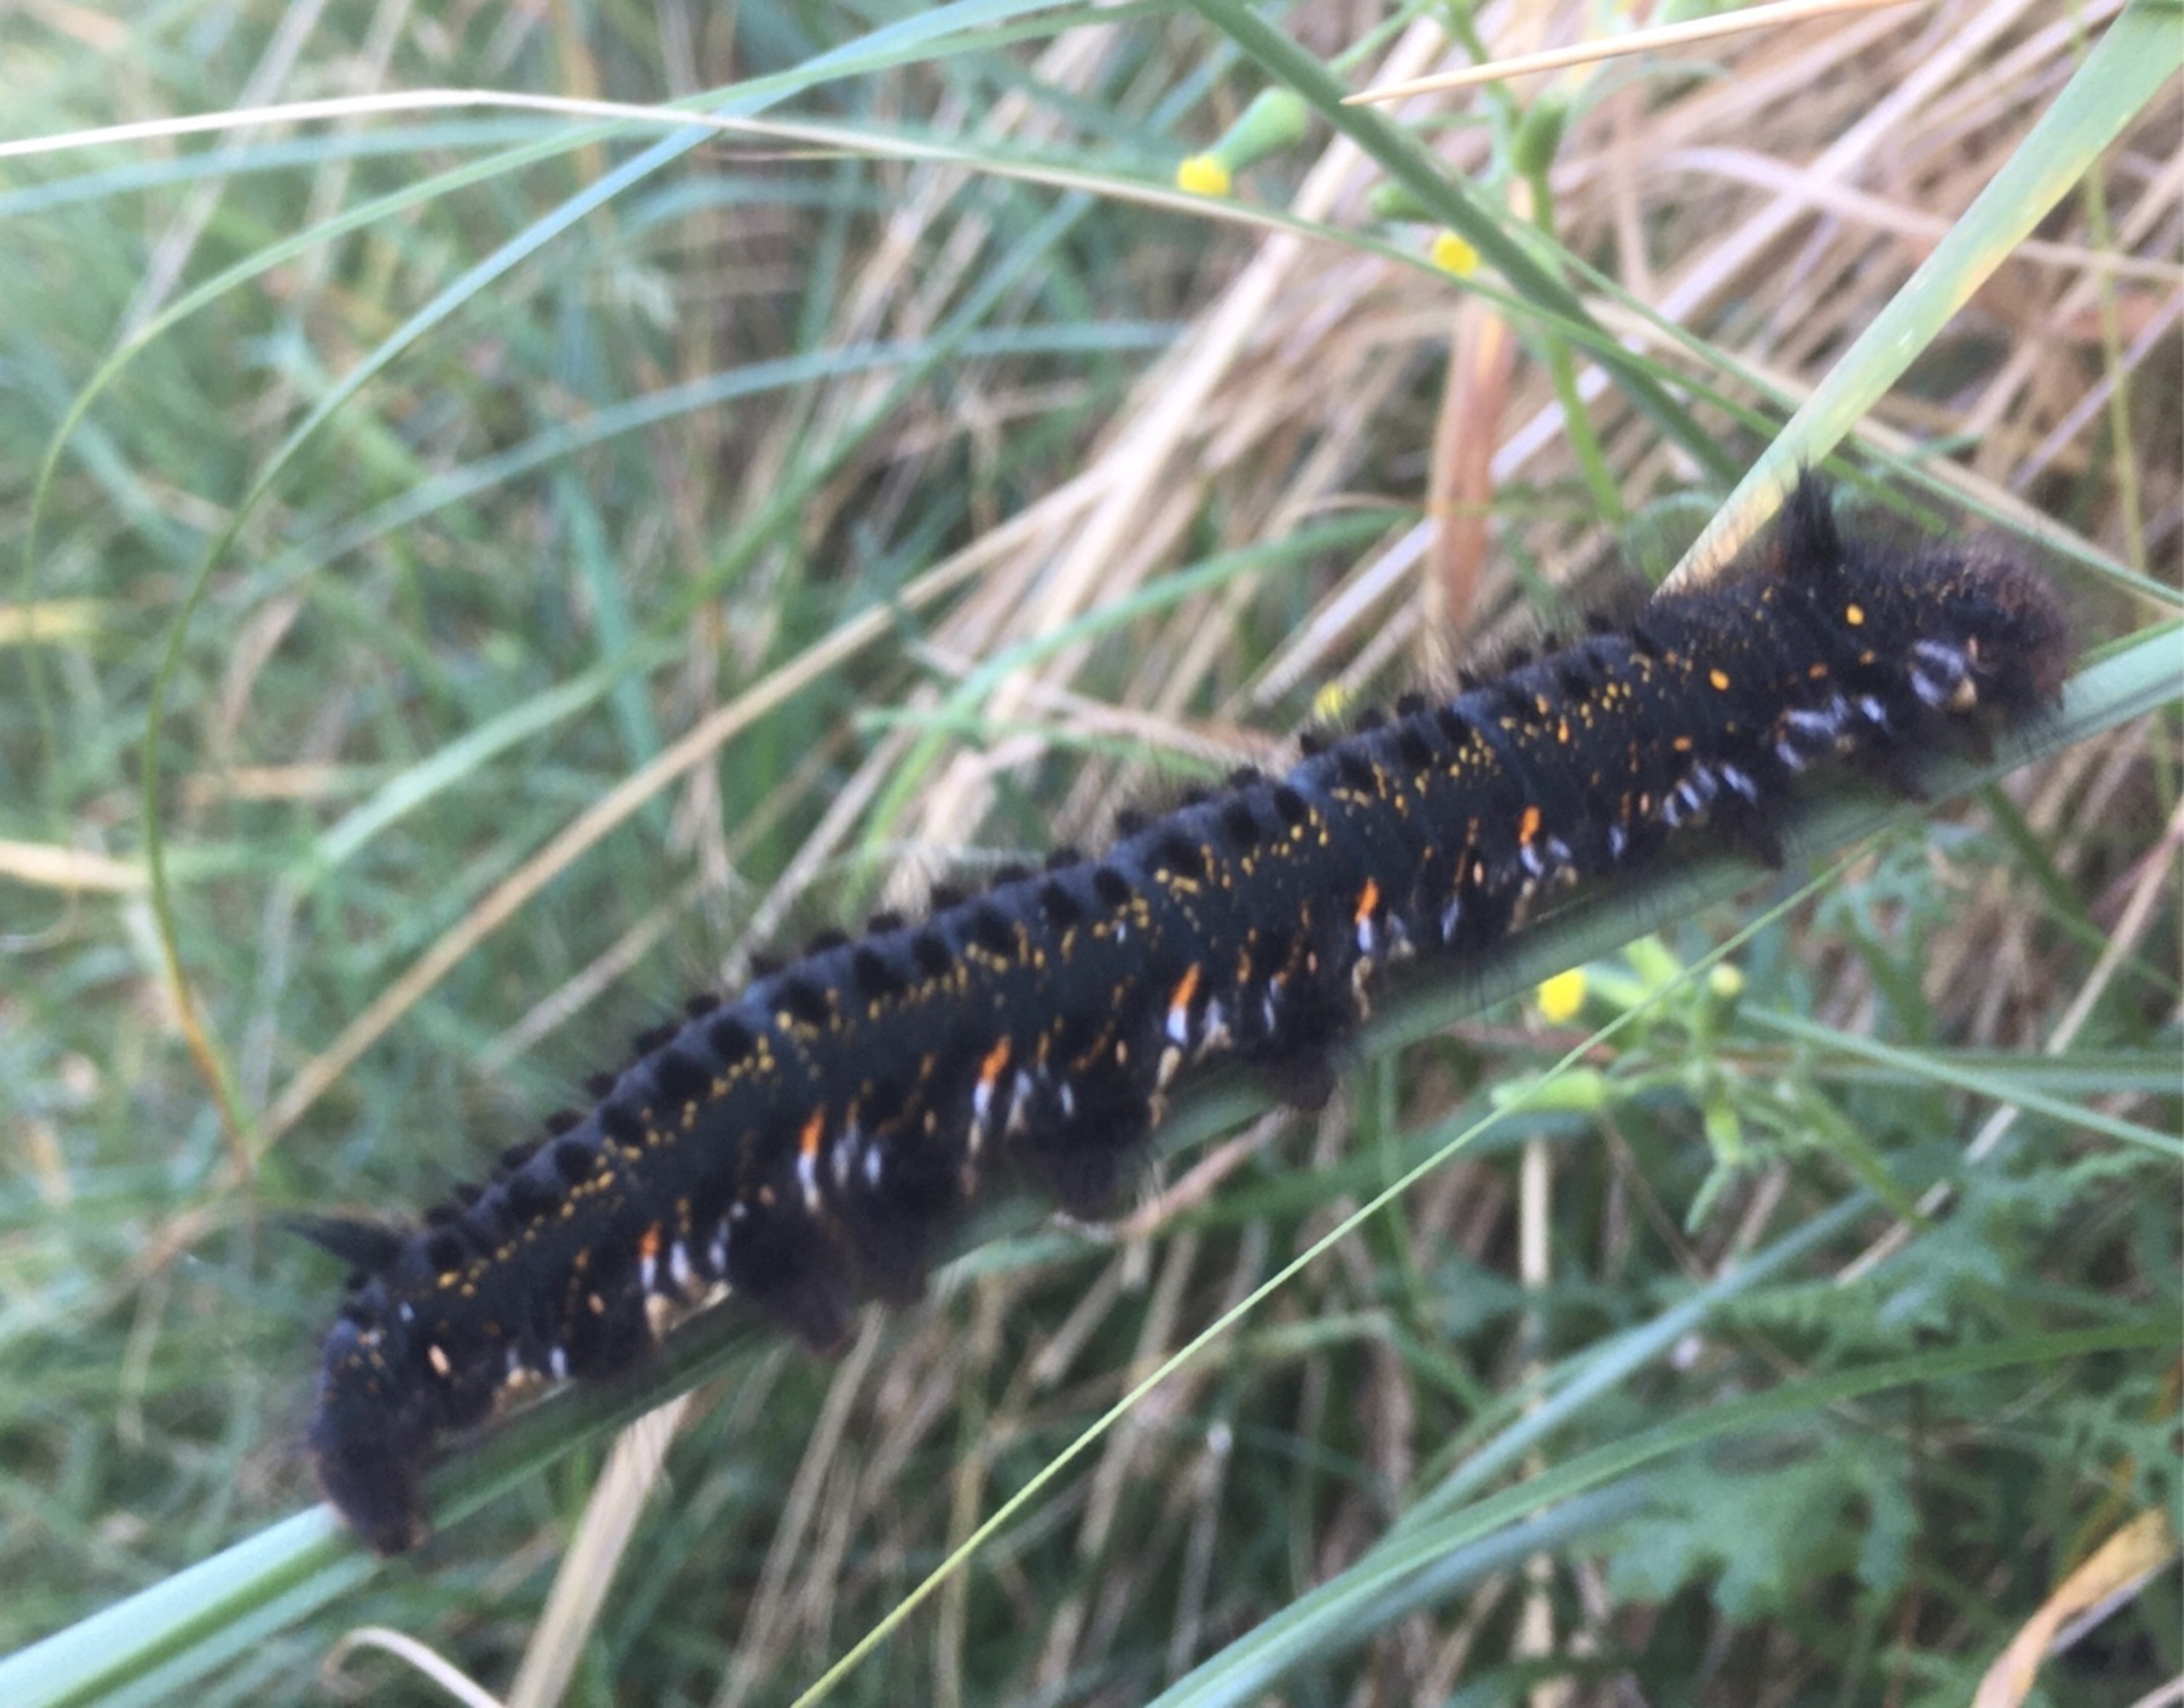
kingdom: Animalia
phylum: Arthropoda
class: Insecta
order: Lepidoptera
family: Lasiocampidae
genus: Euthrix
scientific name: Euthrix potatoria
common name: Græsspinder
